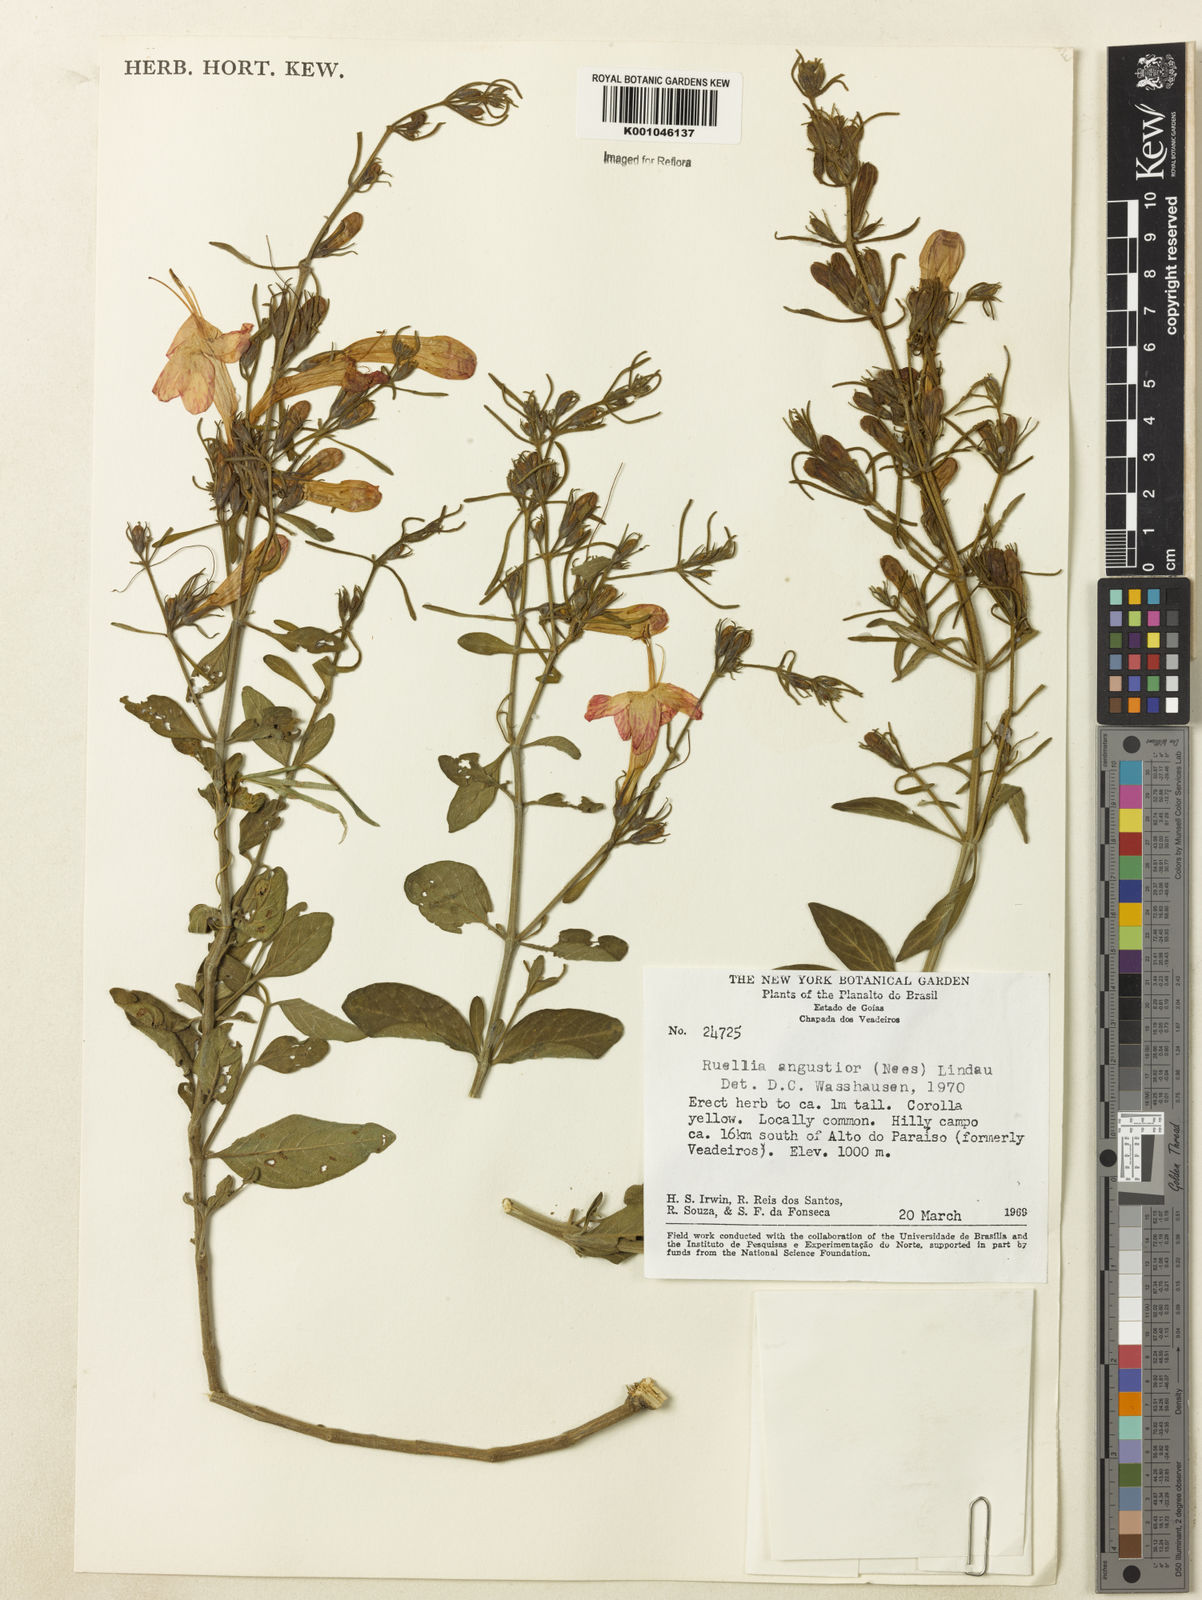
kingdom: Plantae
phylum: Tracheophyta
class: Magnoliopsida
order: Lamiales
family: Acanthaceae
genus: Ruellia
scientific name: Ruellia angustior
